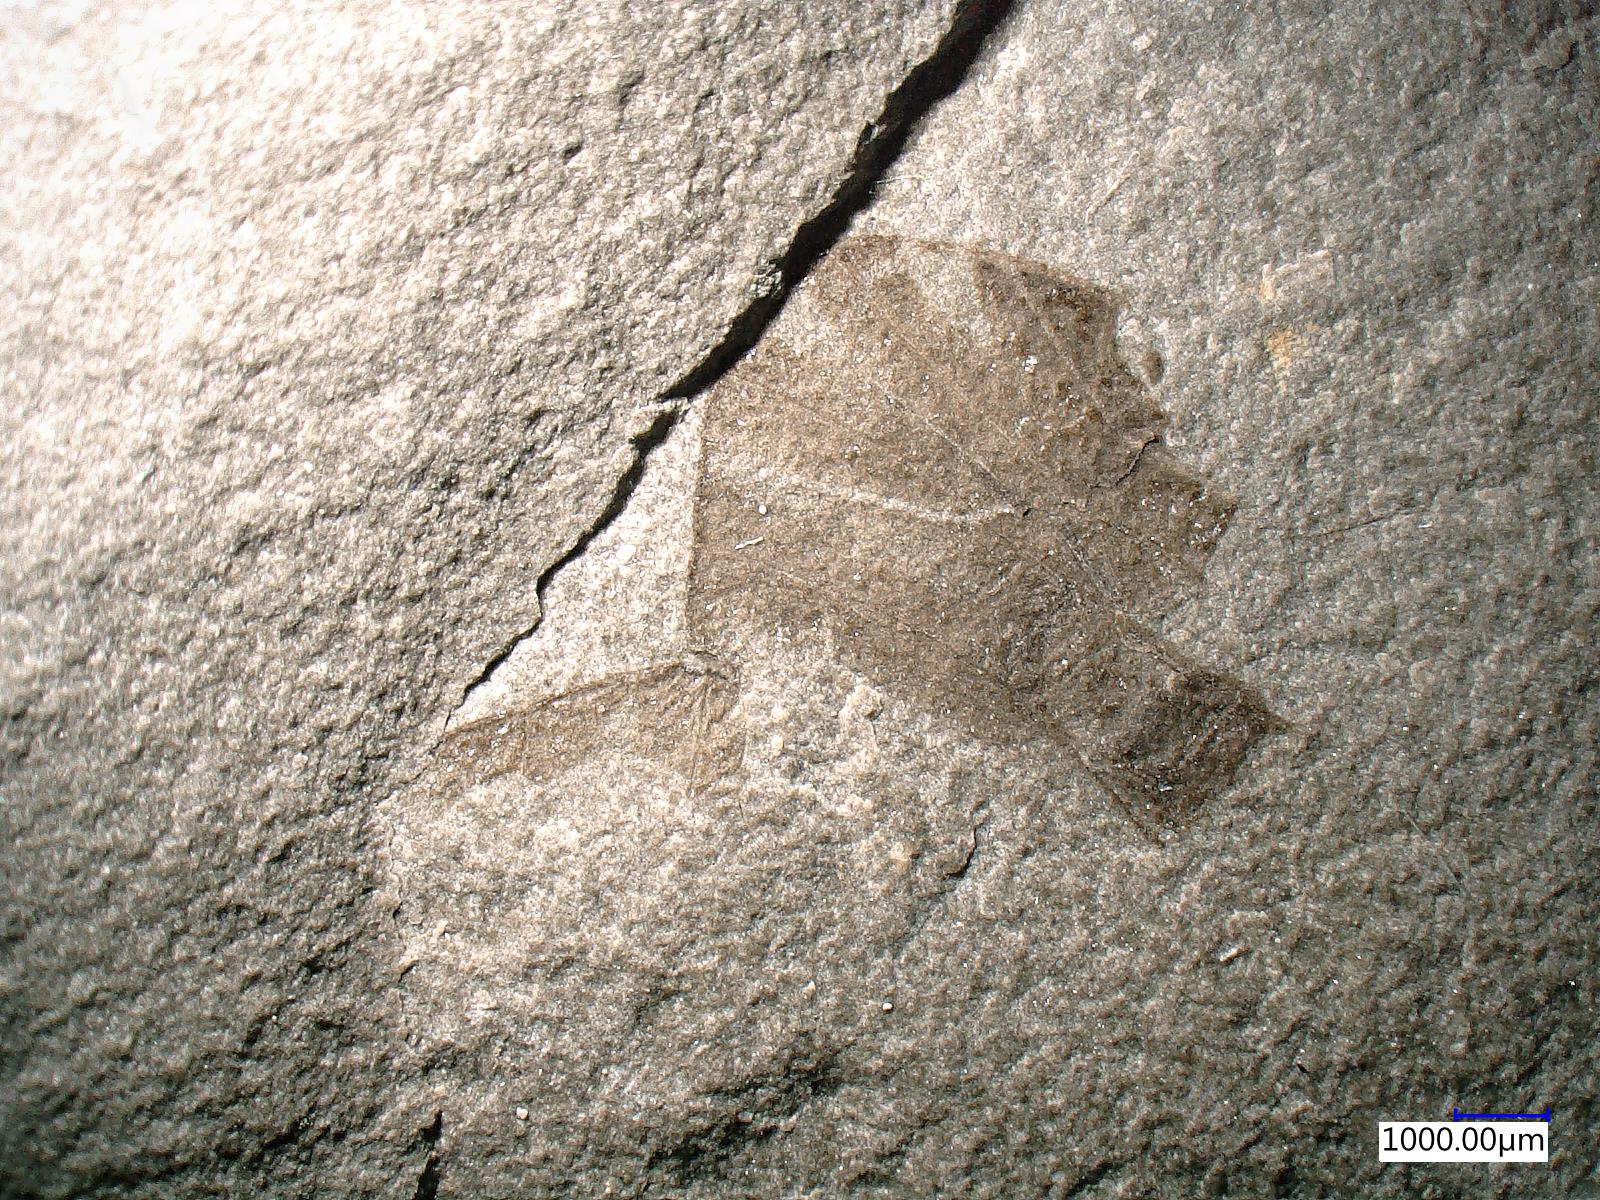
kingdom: Animalia
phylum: Arthropoda
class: Insecta
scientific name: Insecta
